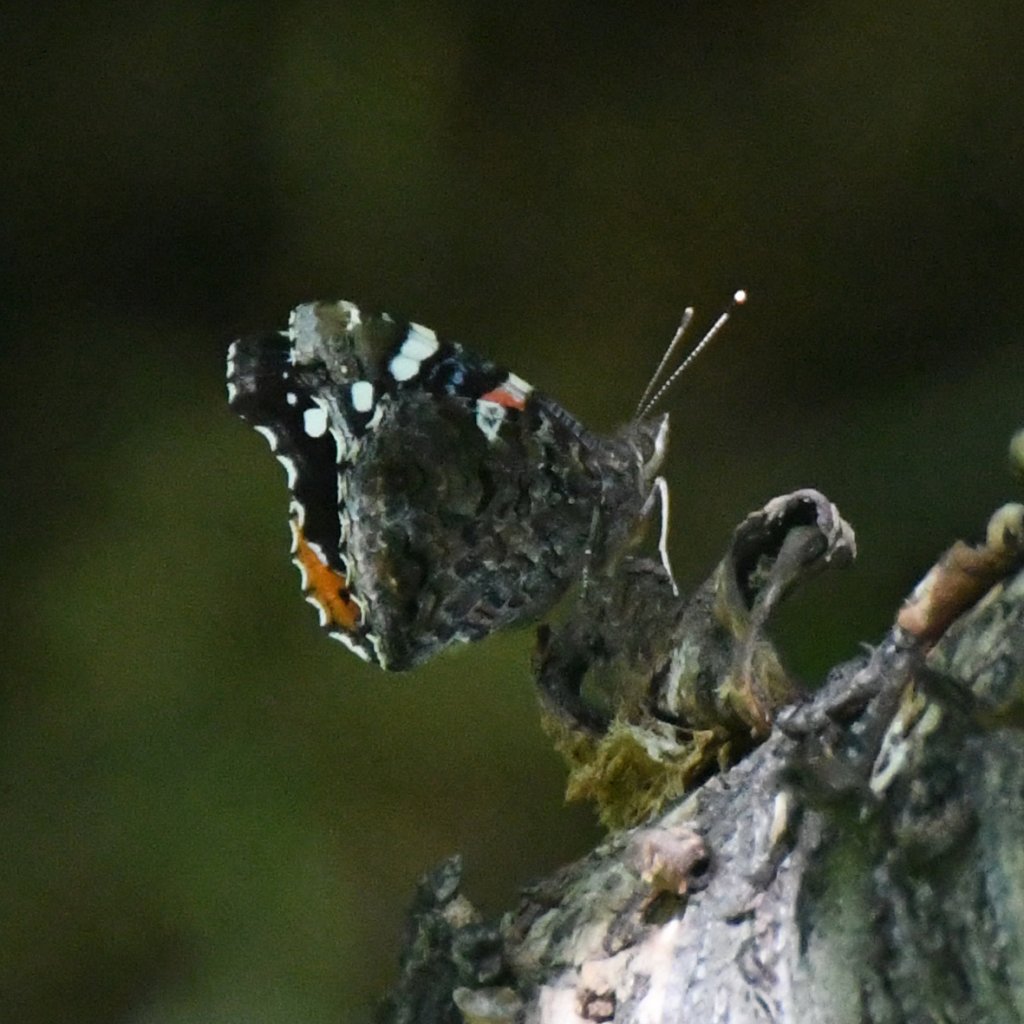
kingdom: Animalia
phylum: Arthropoda
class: Insecta
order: Lepidoptera
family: Nymphalidae
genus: Vanessa
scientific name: Vanessa atalanta
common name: Red Admiral
